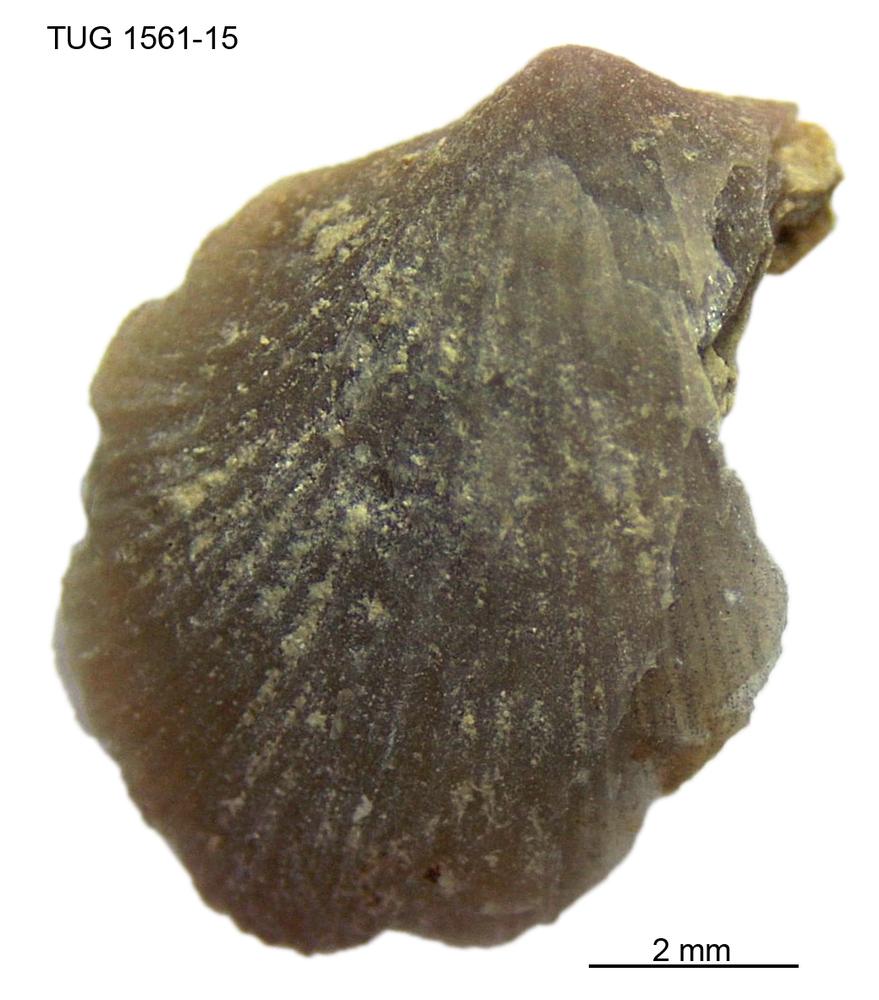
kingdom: Animalia
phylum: Brachiopoda
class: Rhynchonellata
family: Rhipidomellidae
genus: Mendacella
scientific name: Mendacella
